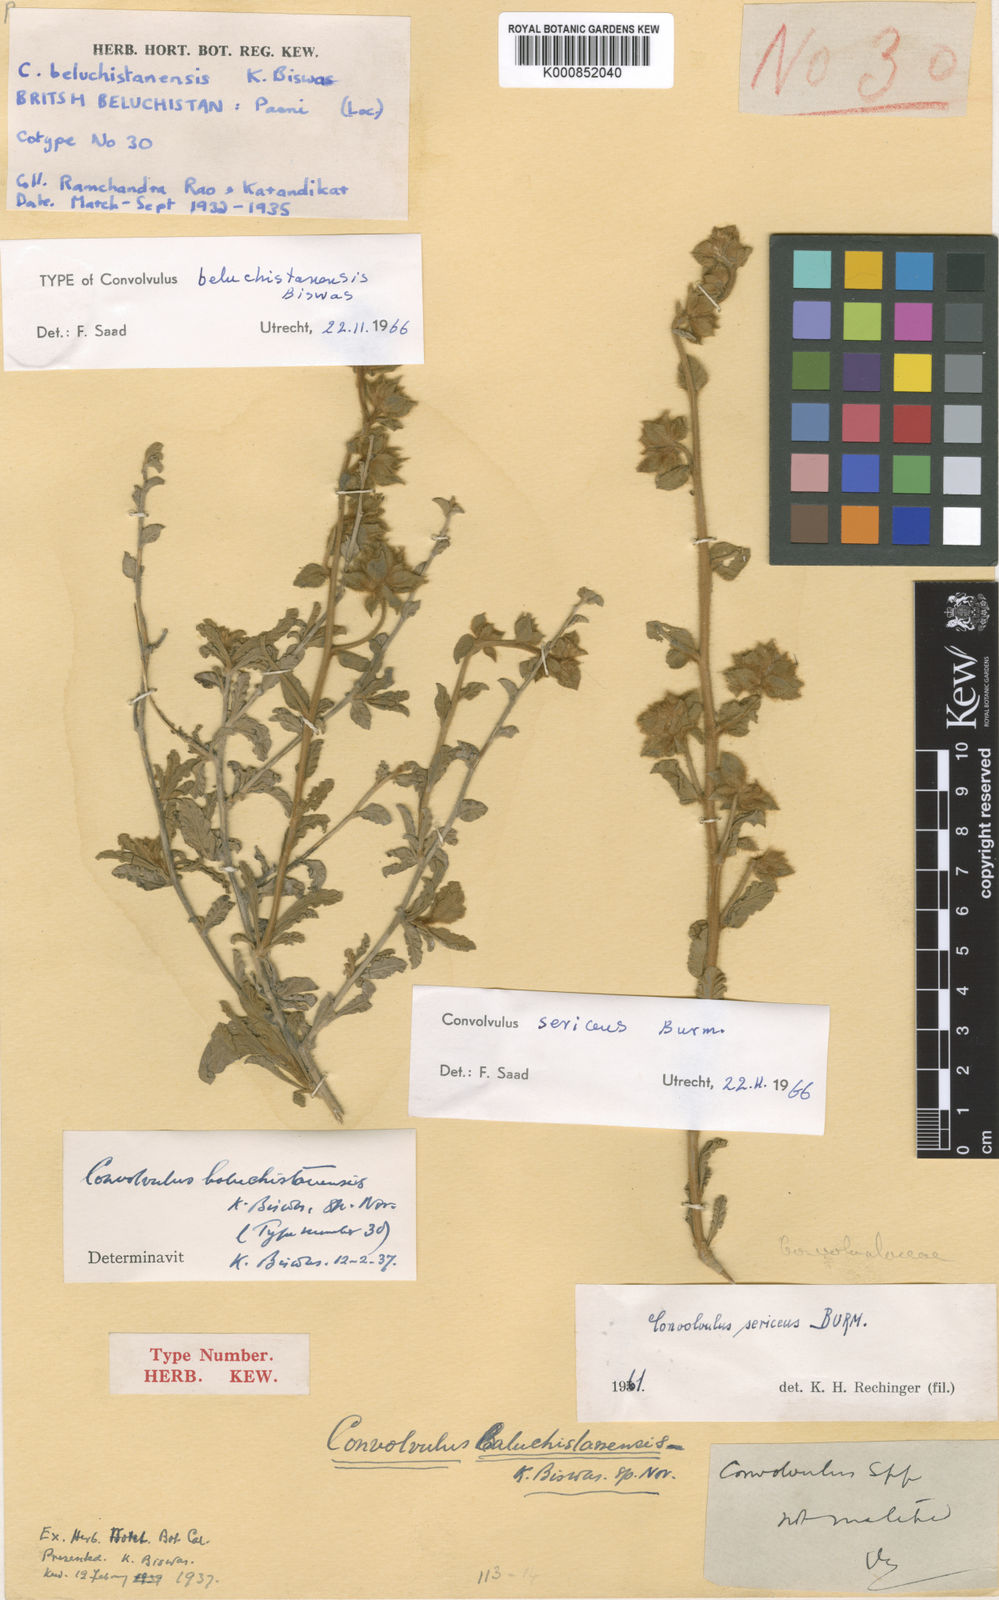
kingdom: Plantae
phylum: Tracheophyta
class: Magnoliopsida
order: Solanales
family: Convolvulaceae
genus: Convolvulus
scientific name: Convolvulus cephalopodus
